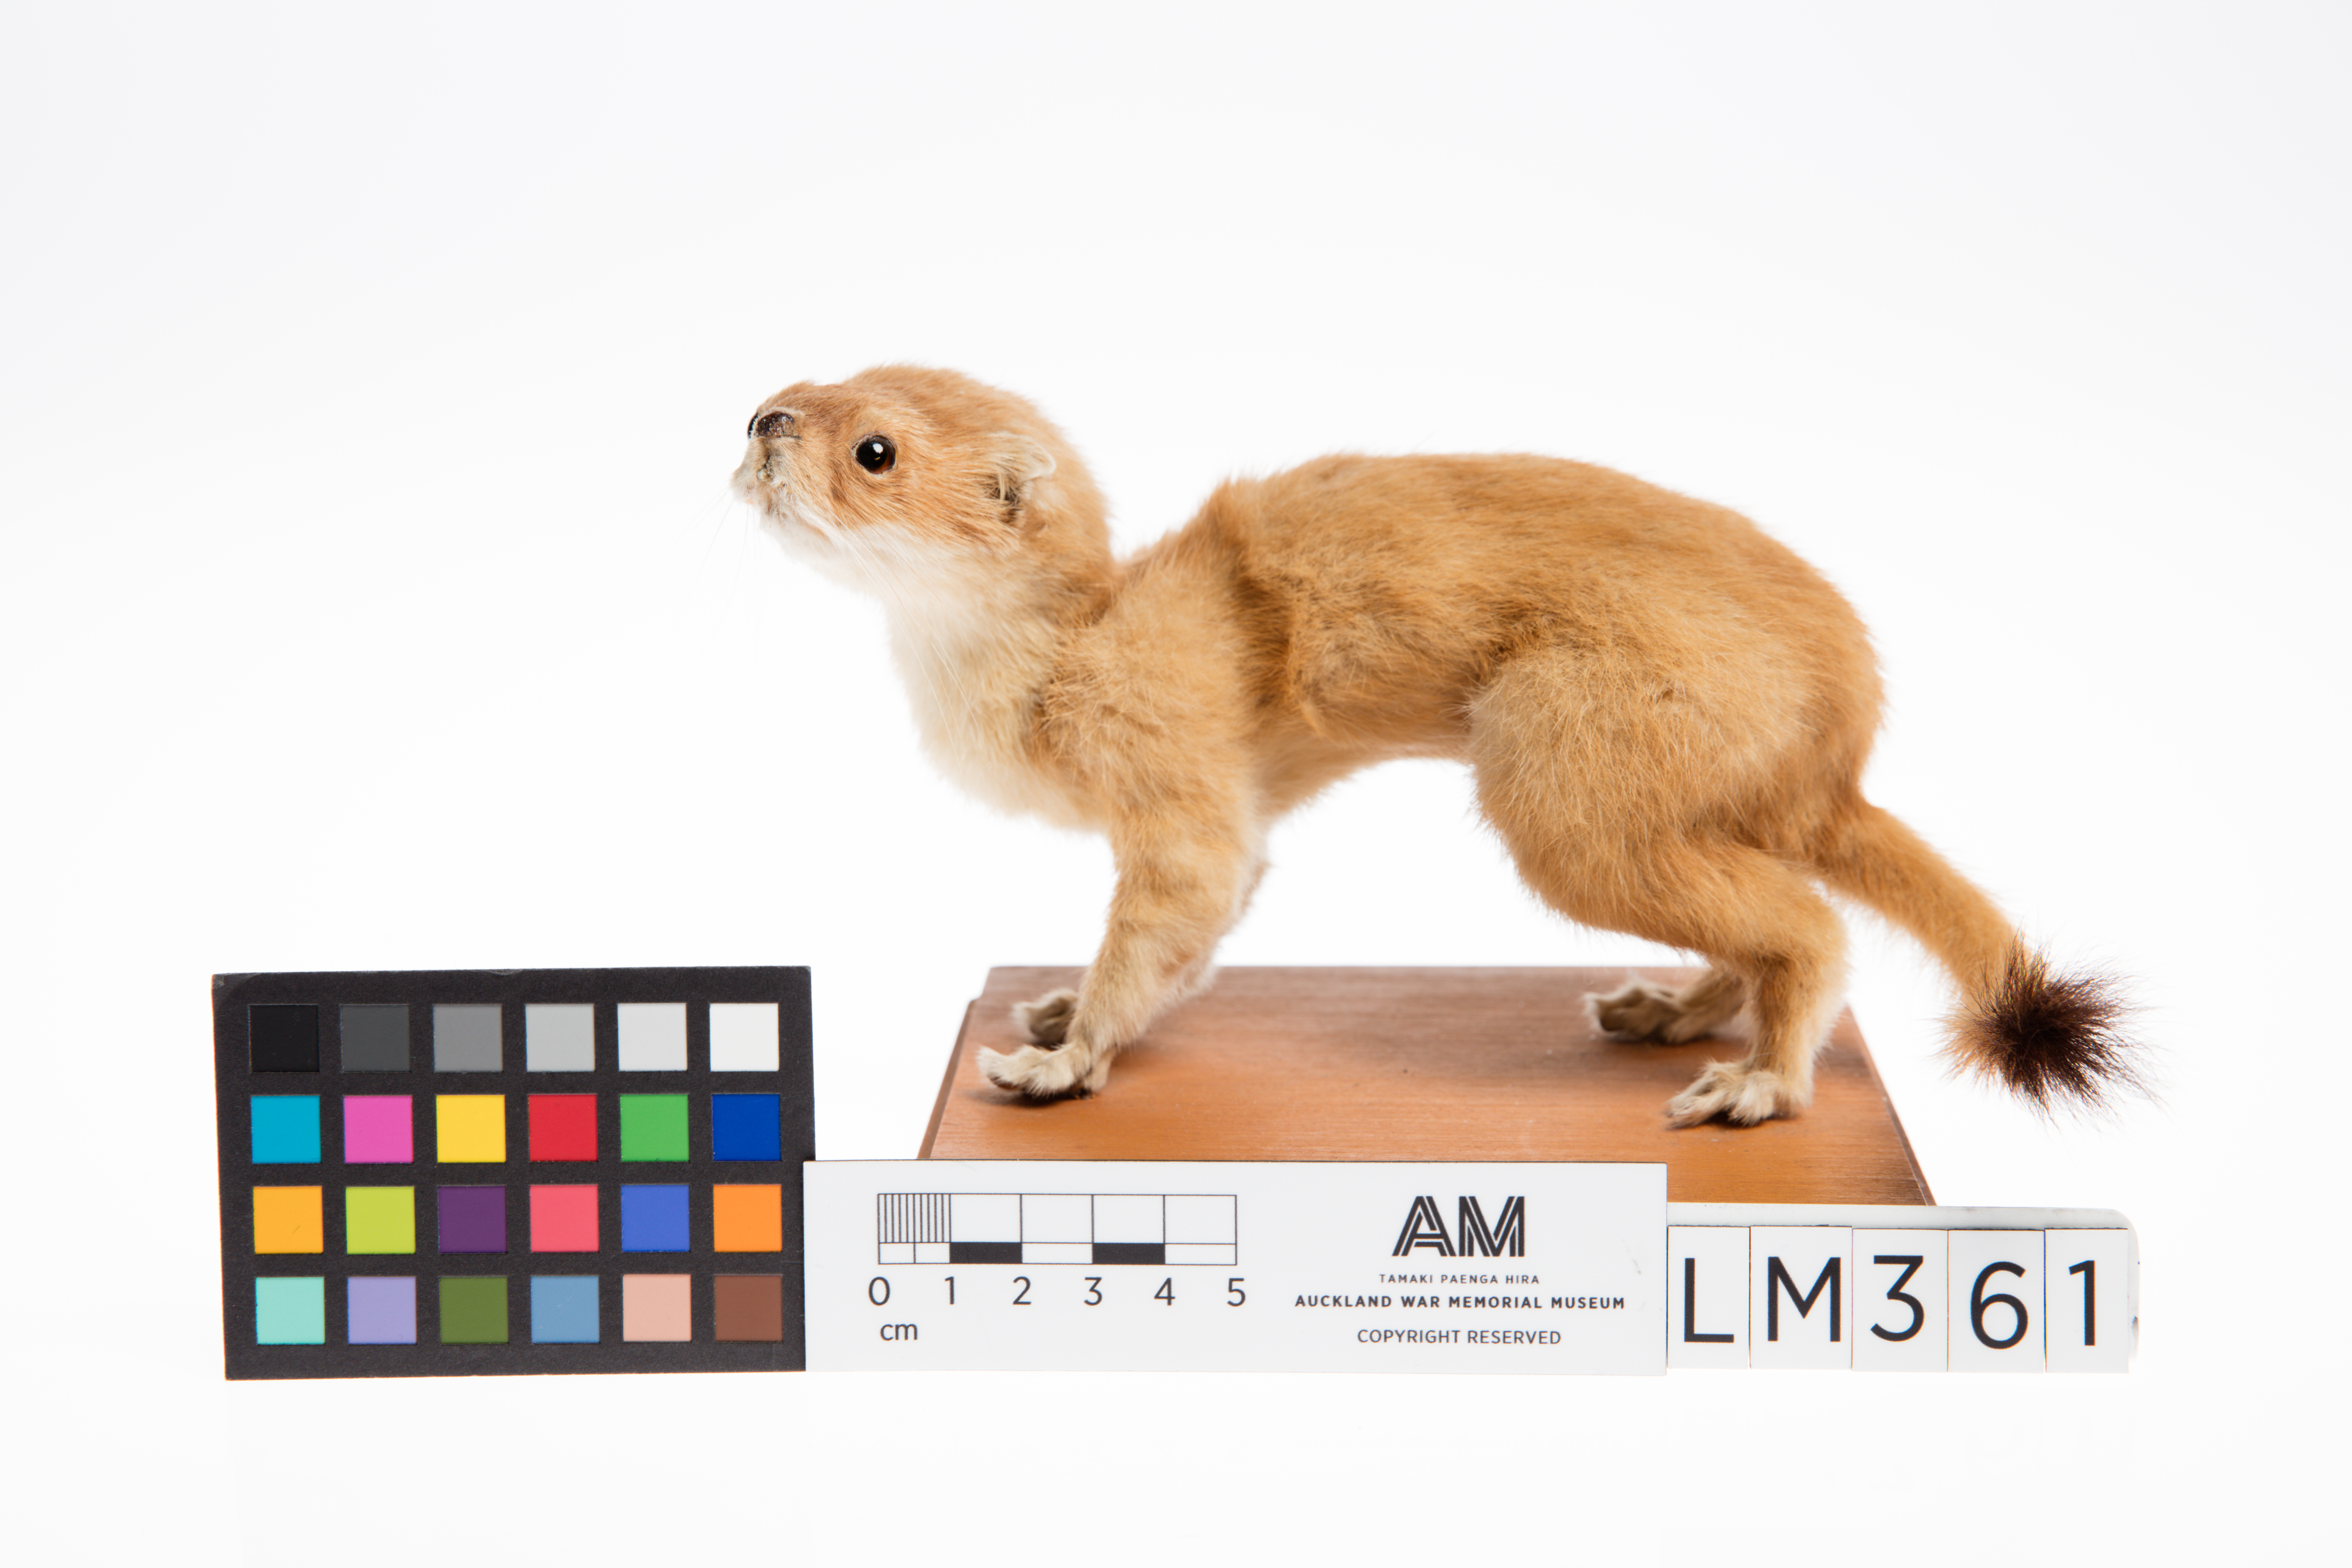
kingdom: Animalia
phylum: Chordata
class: Mammalia
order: Carnivora
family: Mustelidae
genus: Mustela
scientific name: Mustela erminea
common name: Stoat
